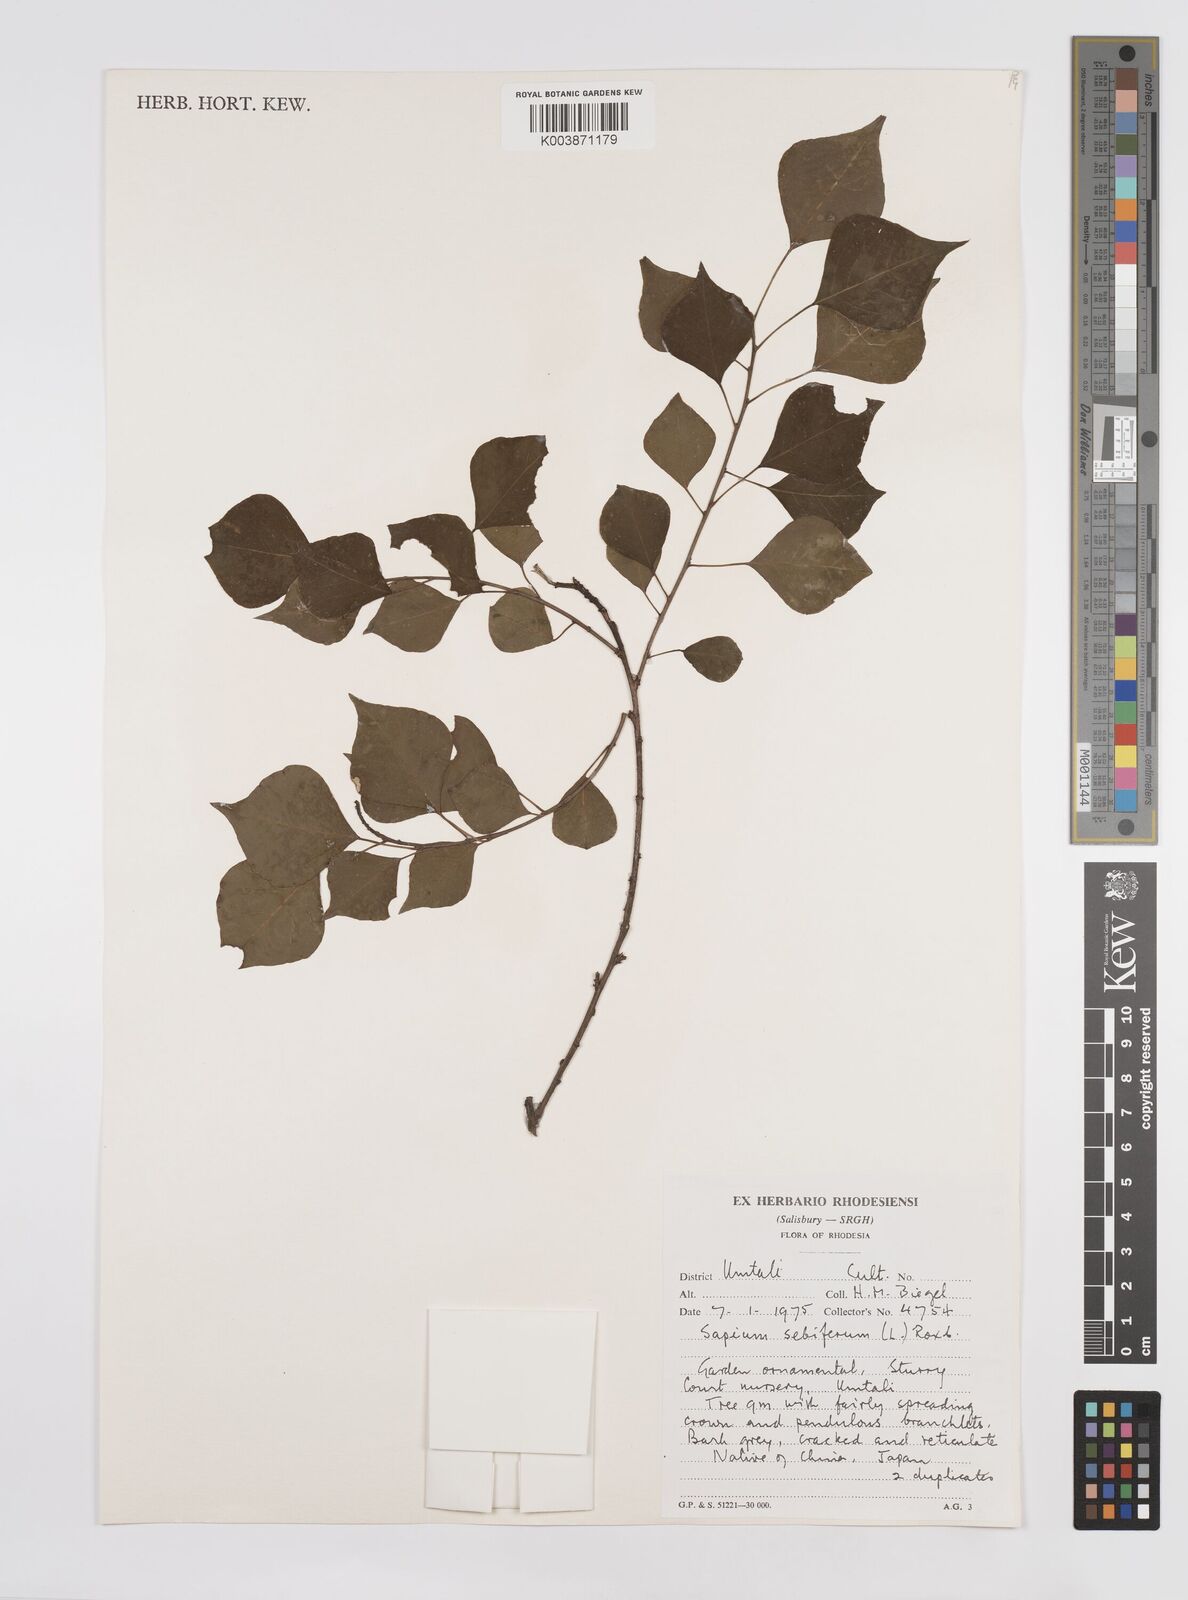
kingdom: Plantae
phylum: Tracheophyta
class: Magnoliopsida
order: Malpighiales
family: Euphorbiaceae
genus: Triadica
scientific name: Triadica sebifera
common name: Chinese tallow
